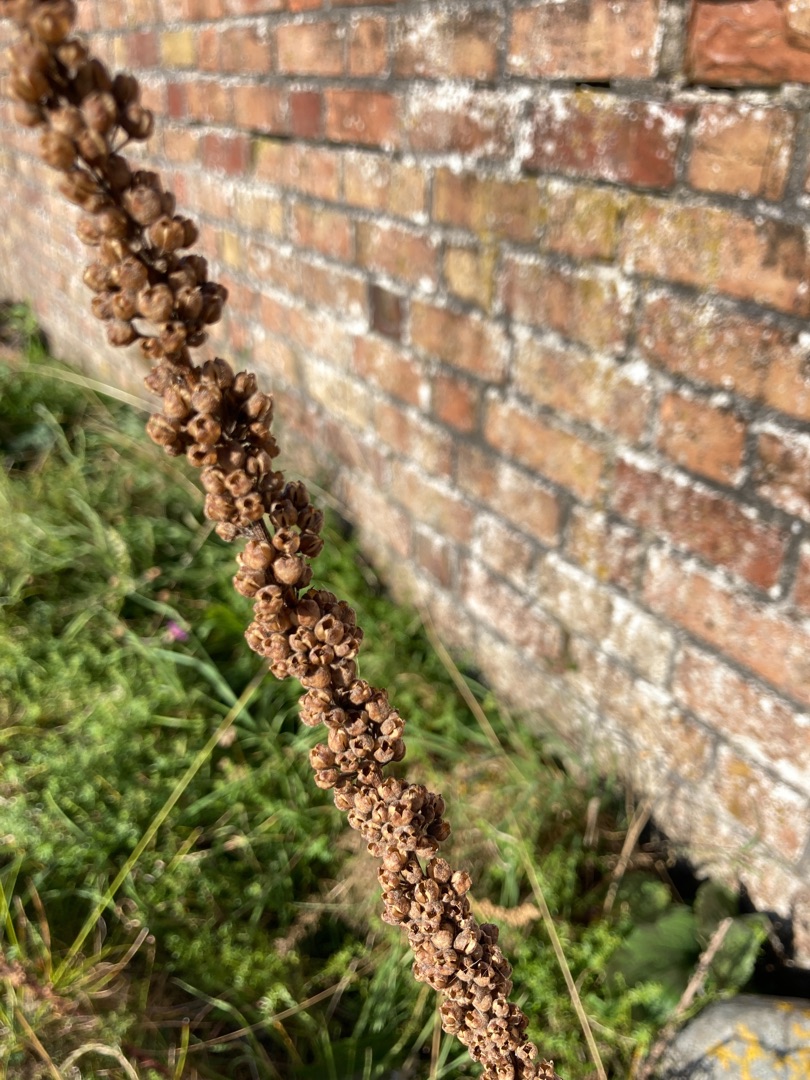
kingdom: Plantae
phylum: Tracheophyta
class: Magnoliopsida
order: Lamiales
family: Scrophulariaceae
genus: Verbascum
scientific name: Verbascum nigrum
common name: Mørk kongelys
